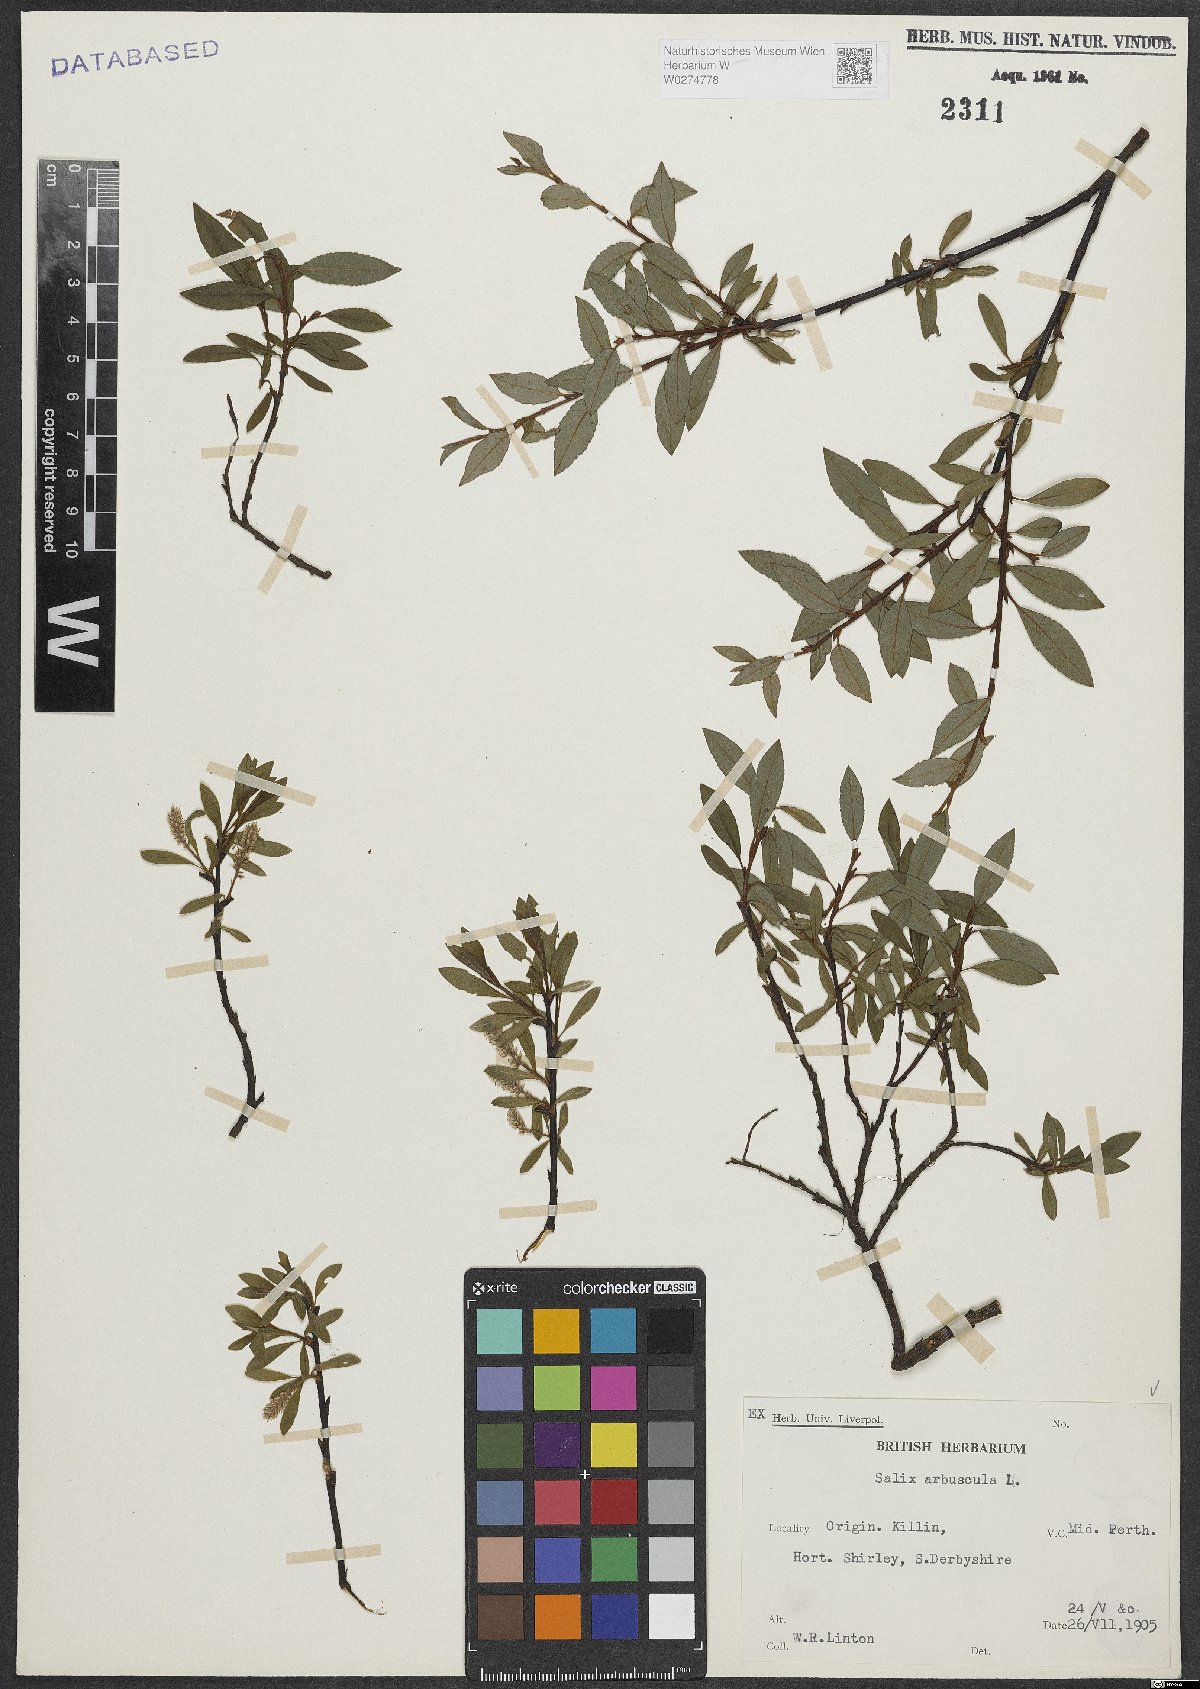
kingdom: Plantae
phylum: Tracheophyta
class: Magnoliopsida
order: Malpighiales
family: Salicaceae
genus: Salix
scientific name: Salix arbuscula
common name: Mountain willow
